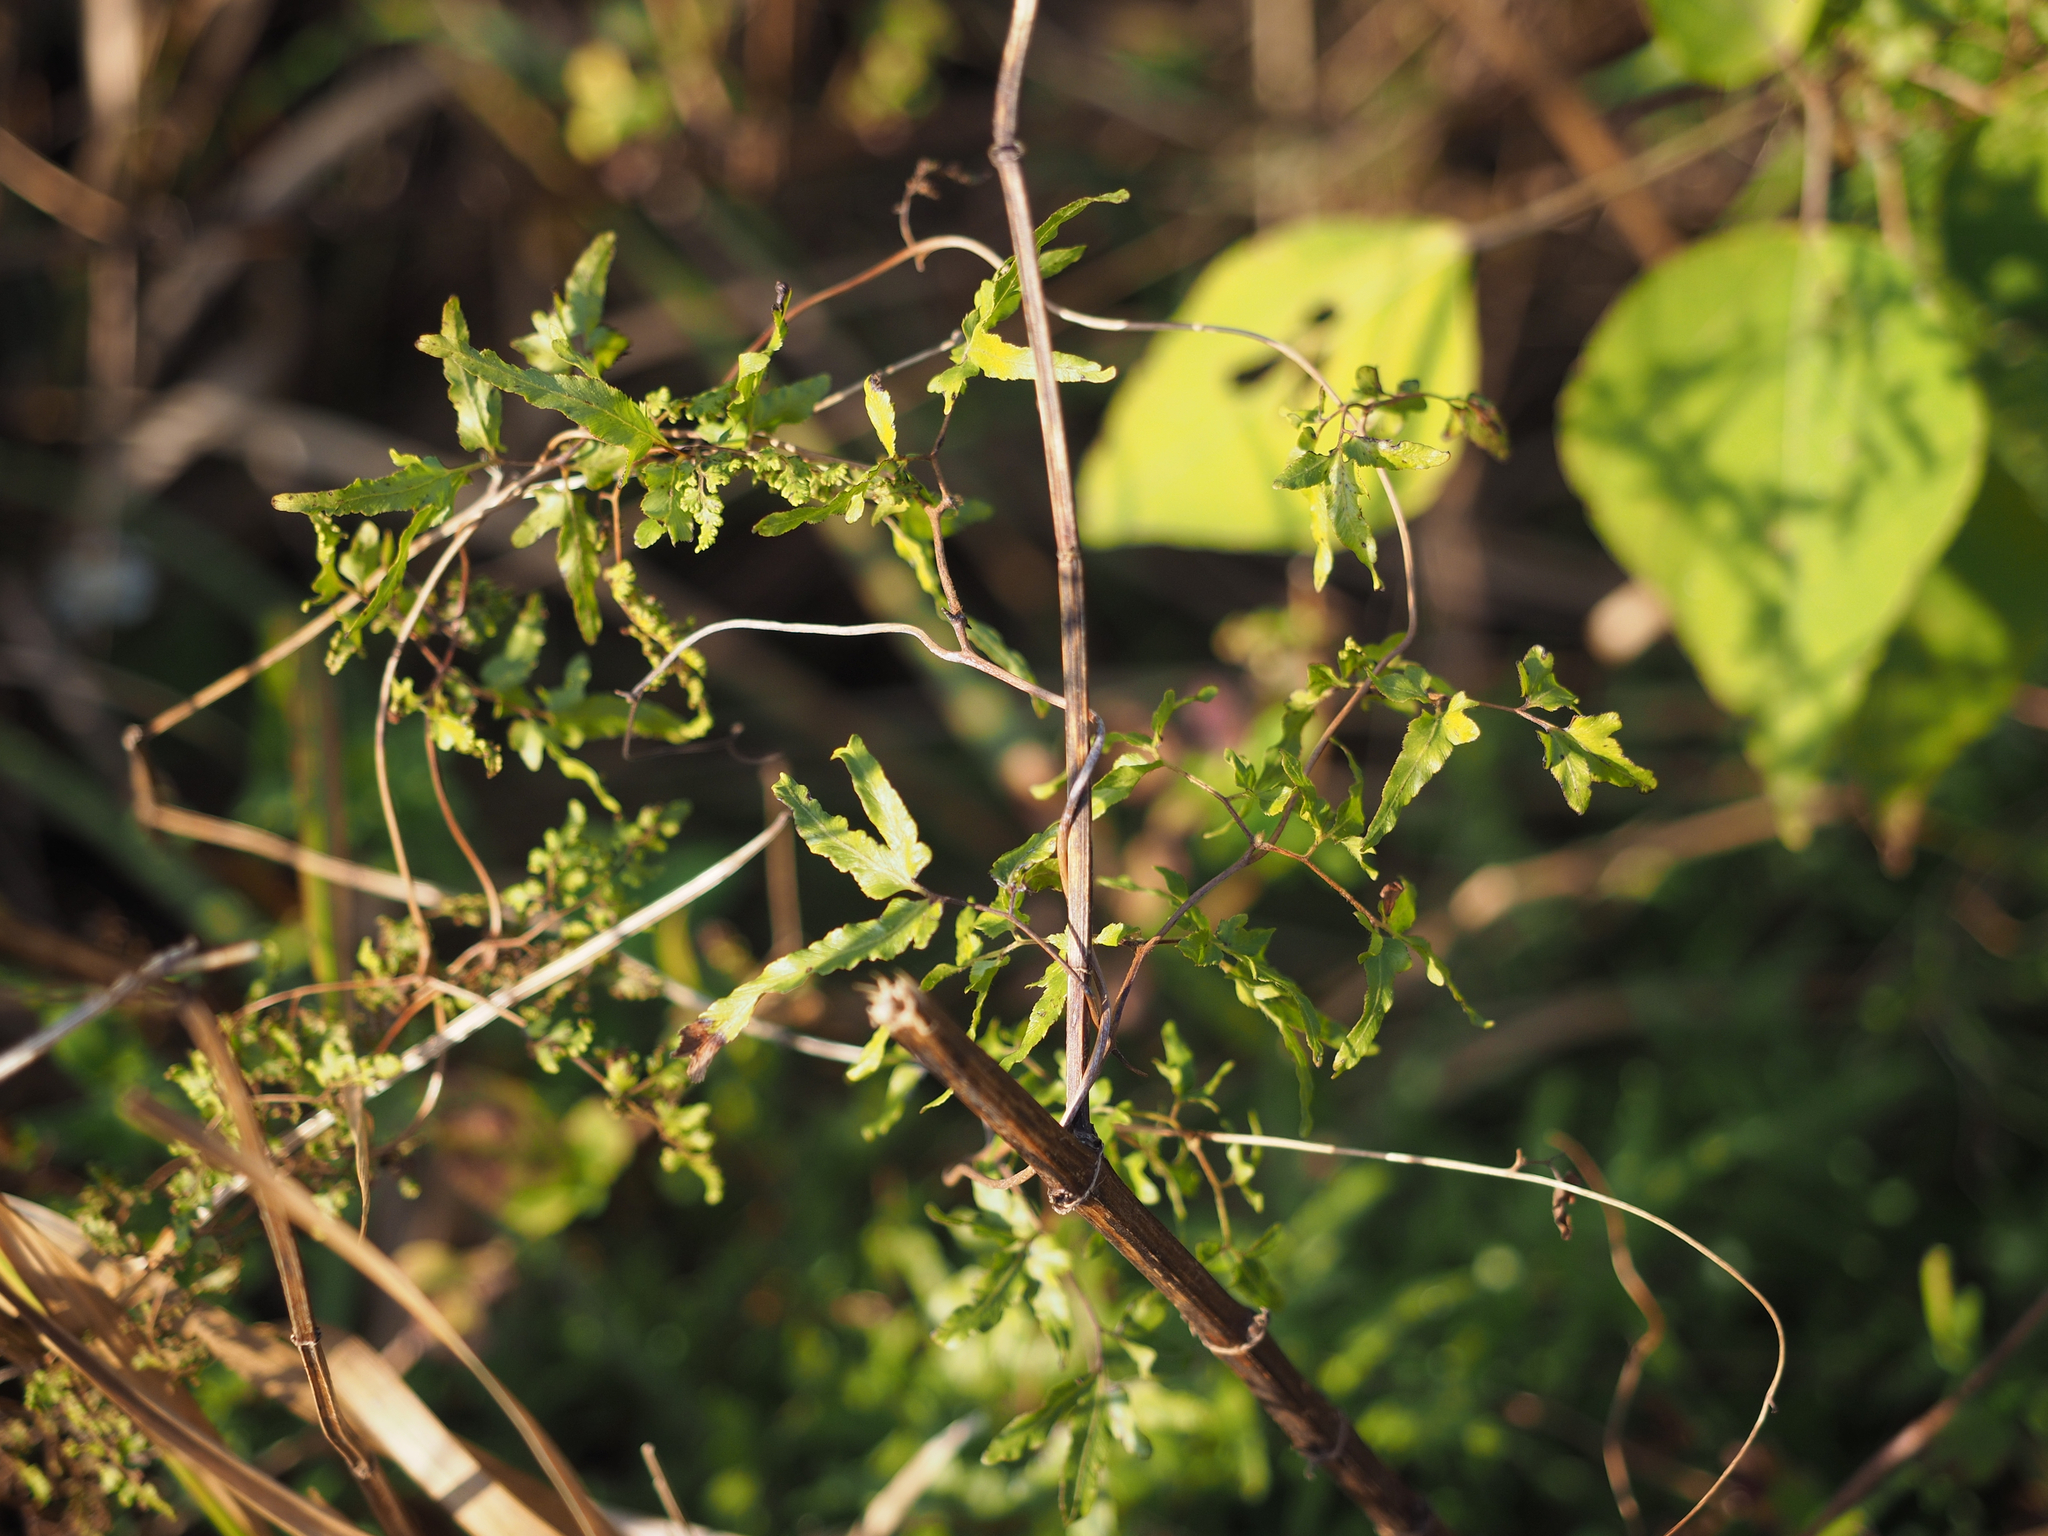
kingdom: Plantae
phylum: Tracheophyta
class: Polypodiopsida
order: Schizaeales
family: Lygodiaceae
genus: Lygodium
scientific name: Lygodium japonicum
